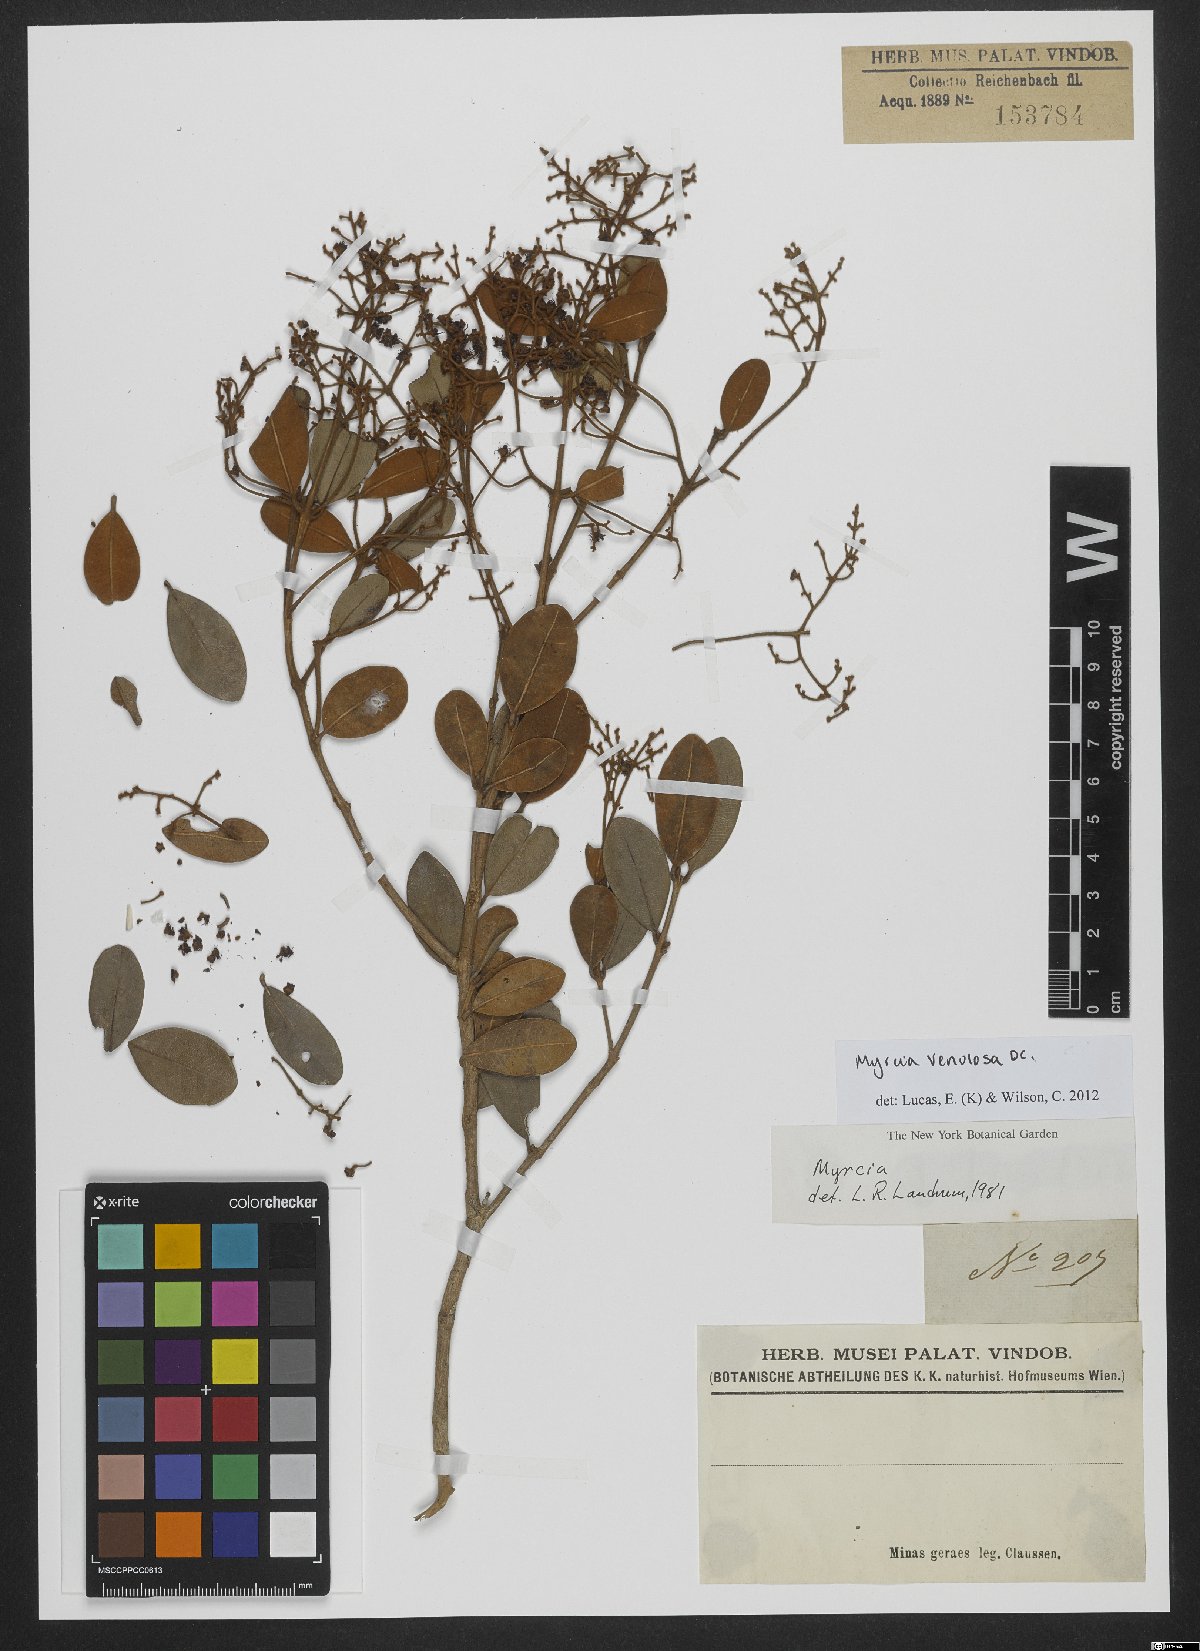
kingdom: Plantae
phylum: Tracheophyta
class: Magnoliopsida
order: Myrtales
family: Myrtaceae
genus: Myrcia
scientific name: Myrcia venulosa
